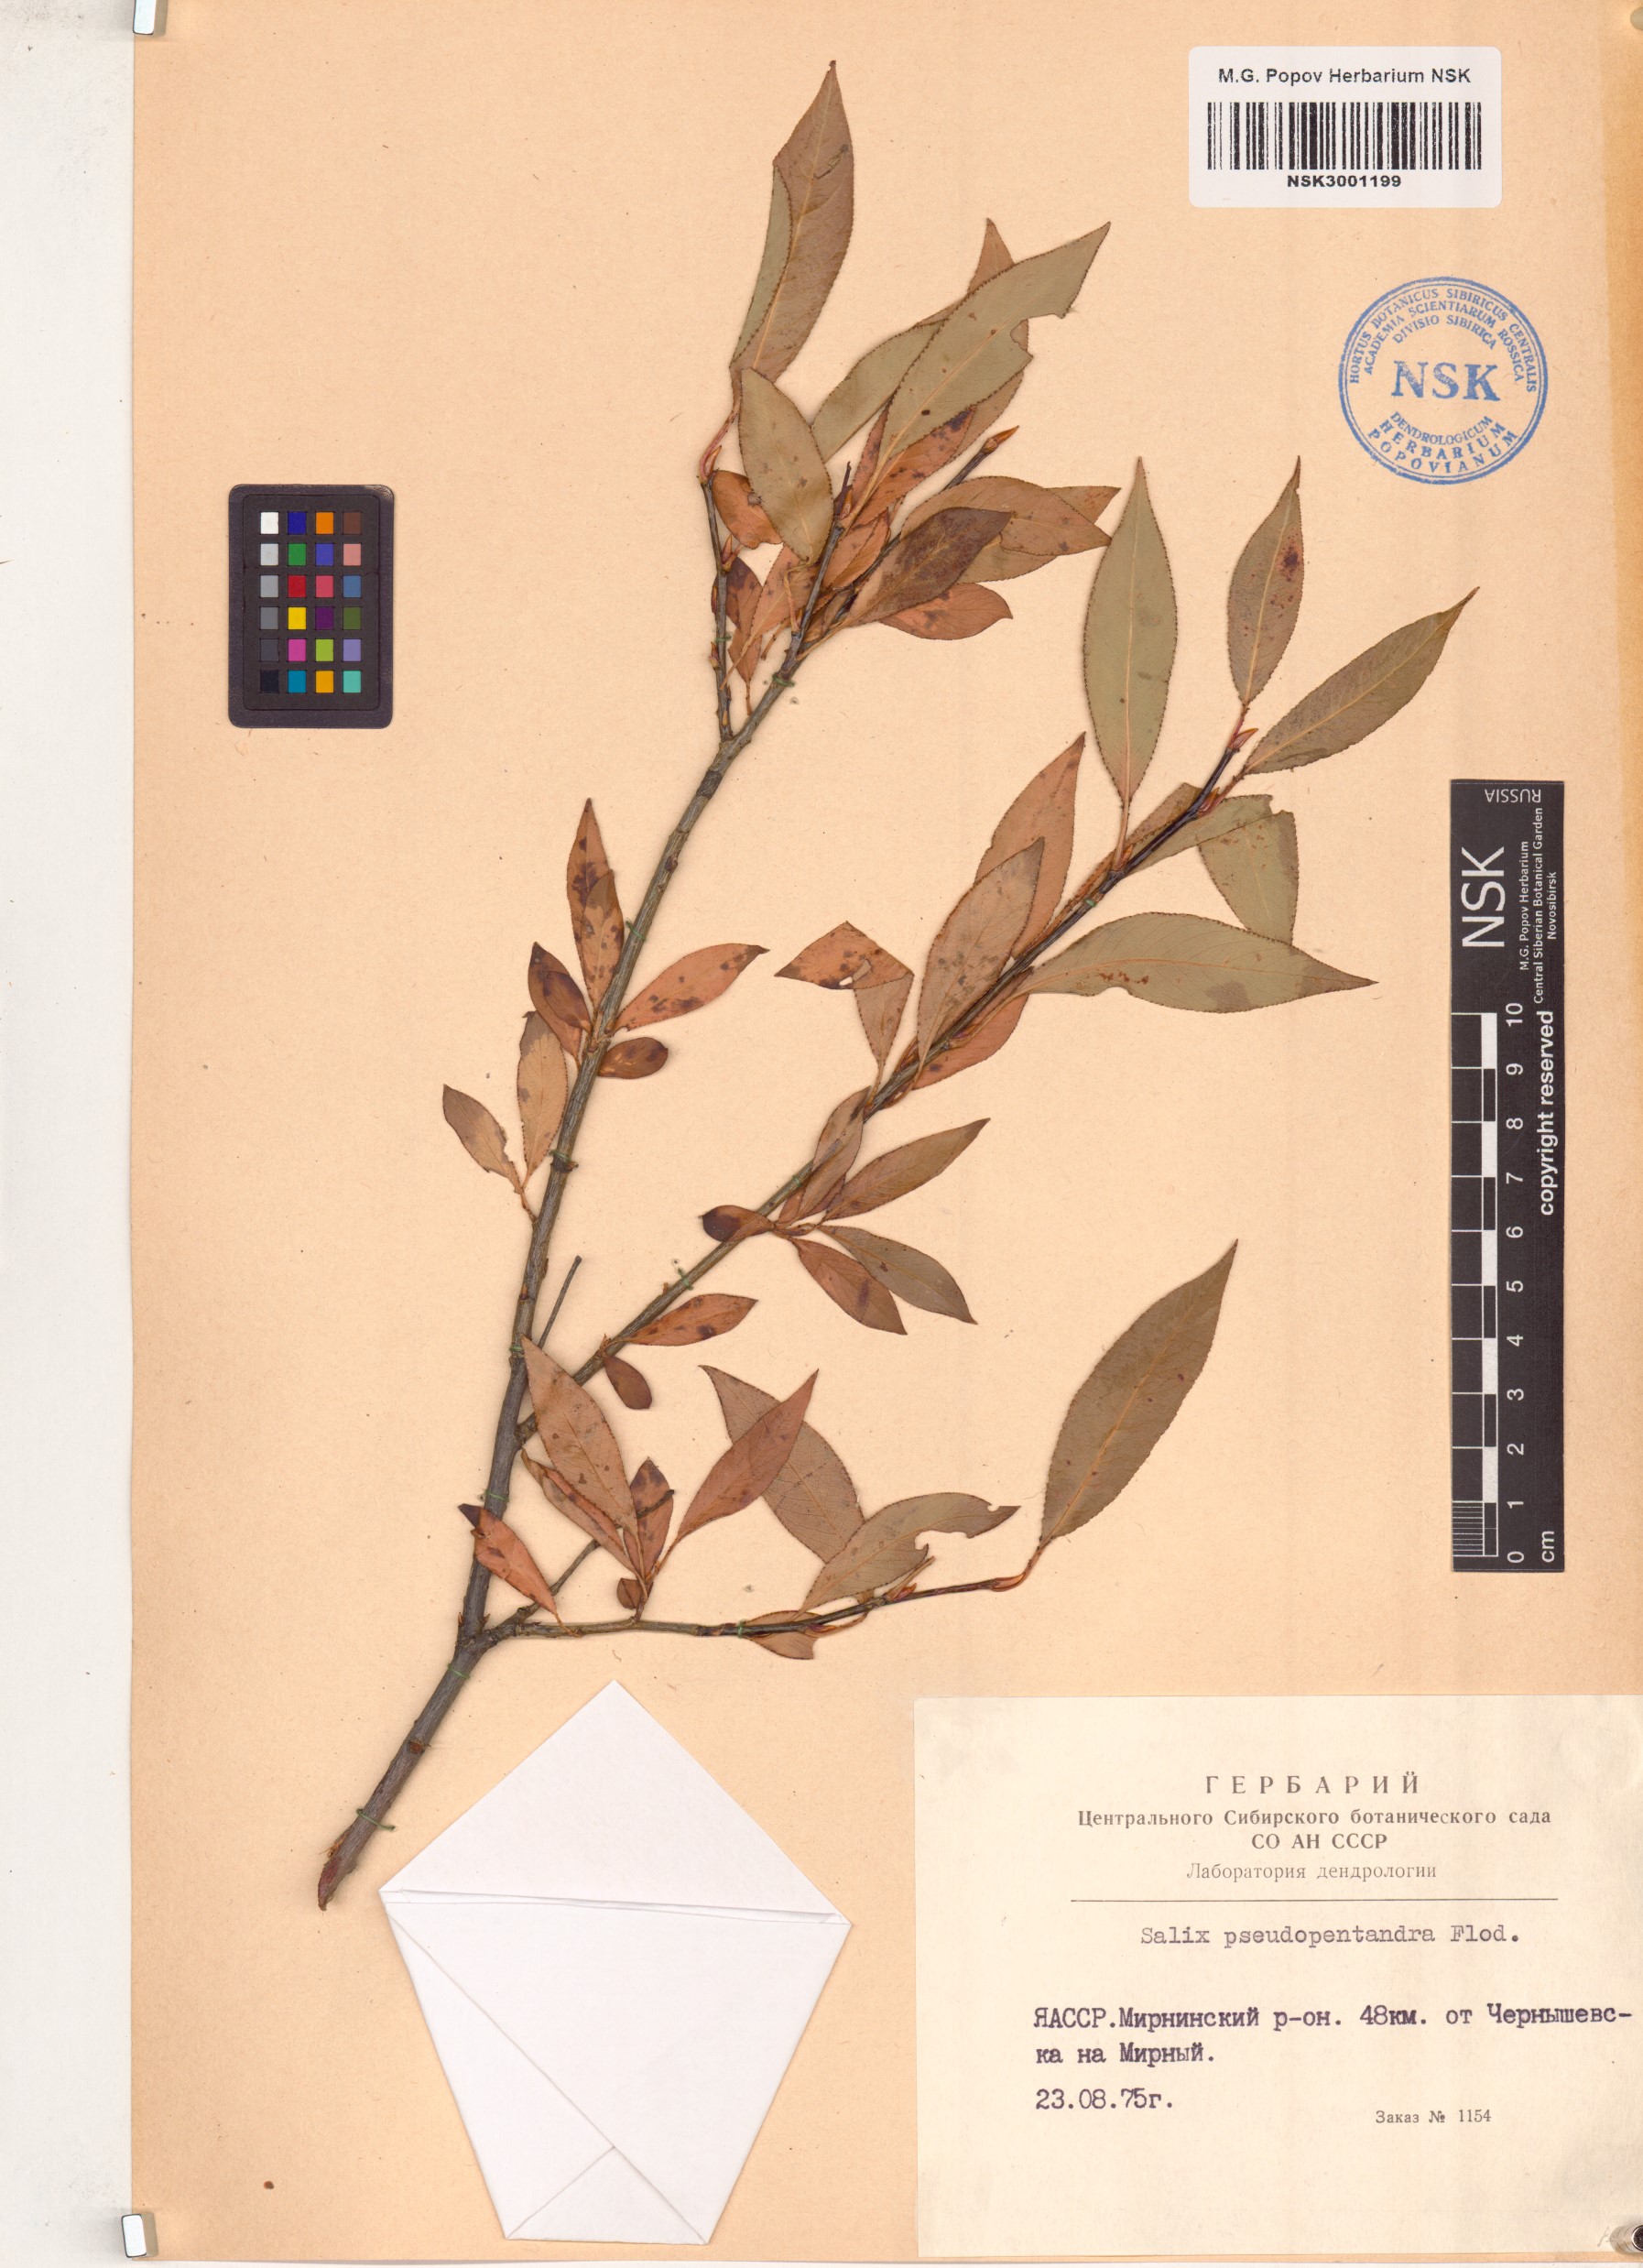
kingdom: Plantae
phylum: Tracheophyta
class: Magnoliopsida
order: Malpighiales
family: Salicaceae
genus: Salix
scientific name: Salix pseudopentandra
